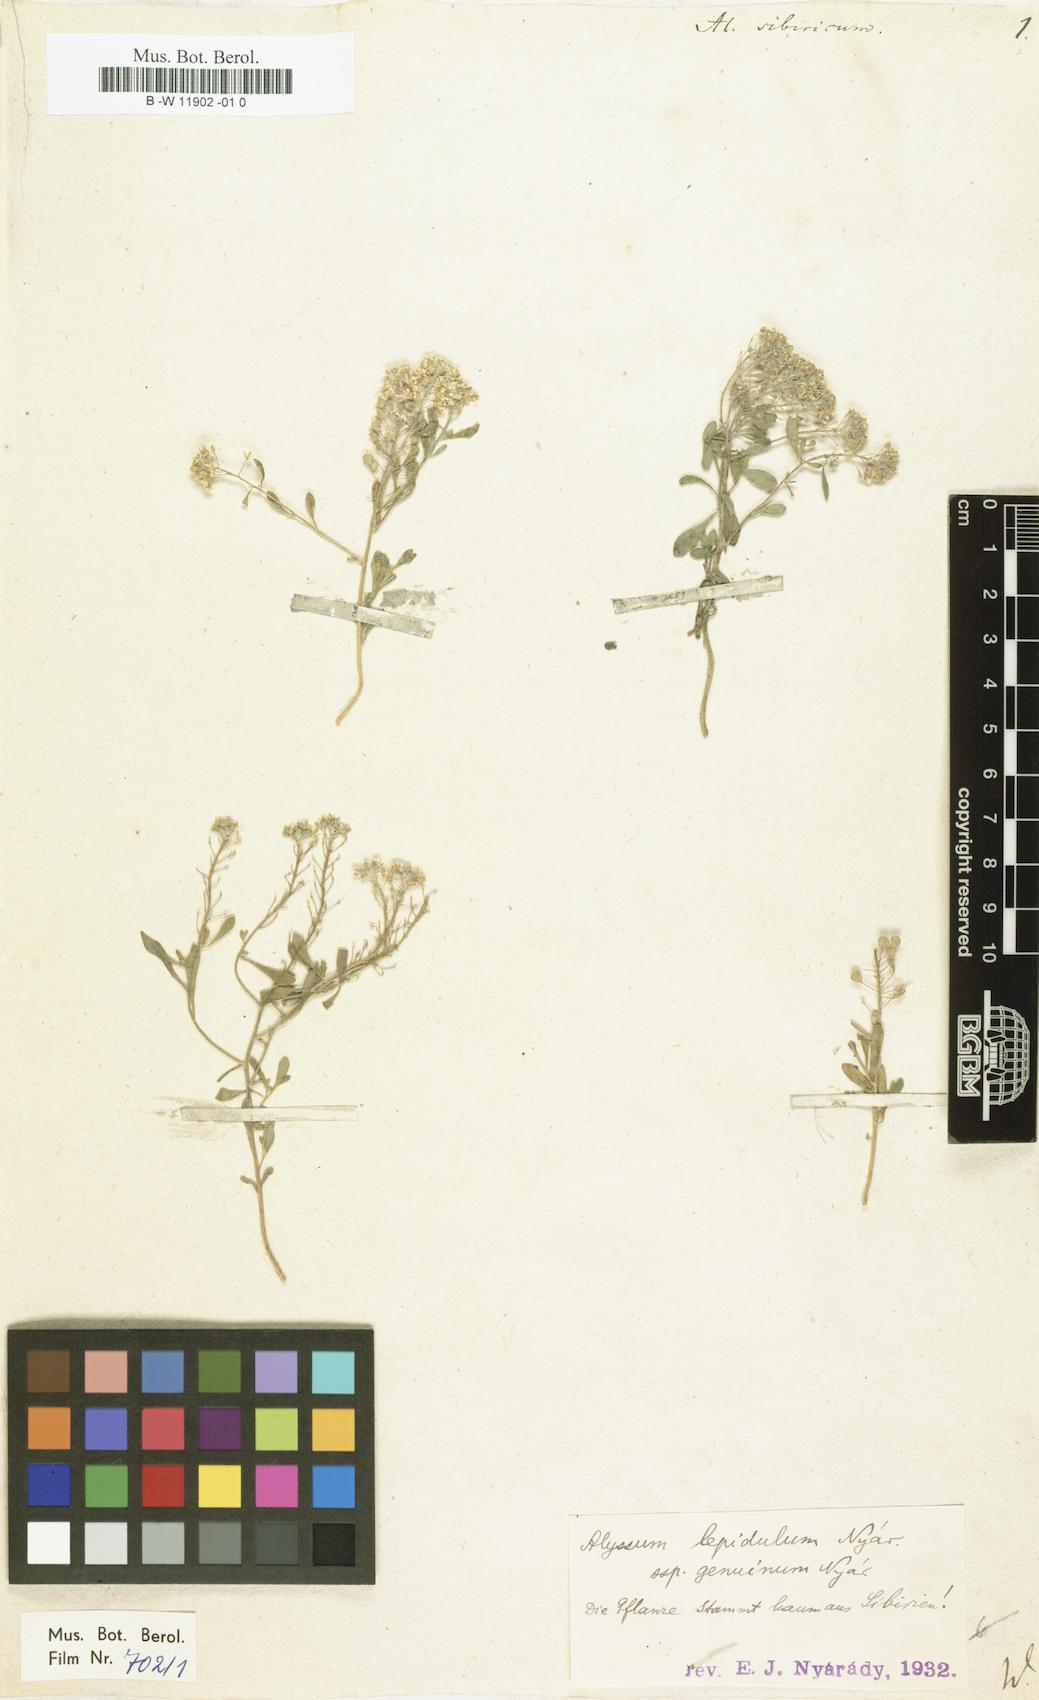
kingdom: Plantae
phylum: Tracheophyta
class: Magnoliopsida
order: Brassicales
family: Brassicaceae
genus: Odontarrhena
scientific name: Odontarrhena sibirica
